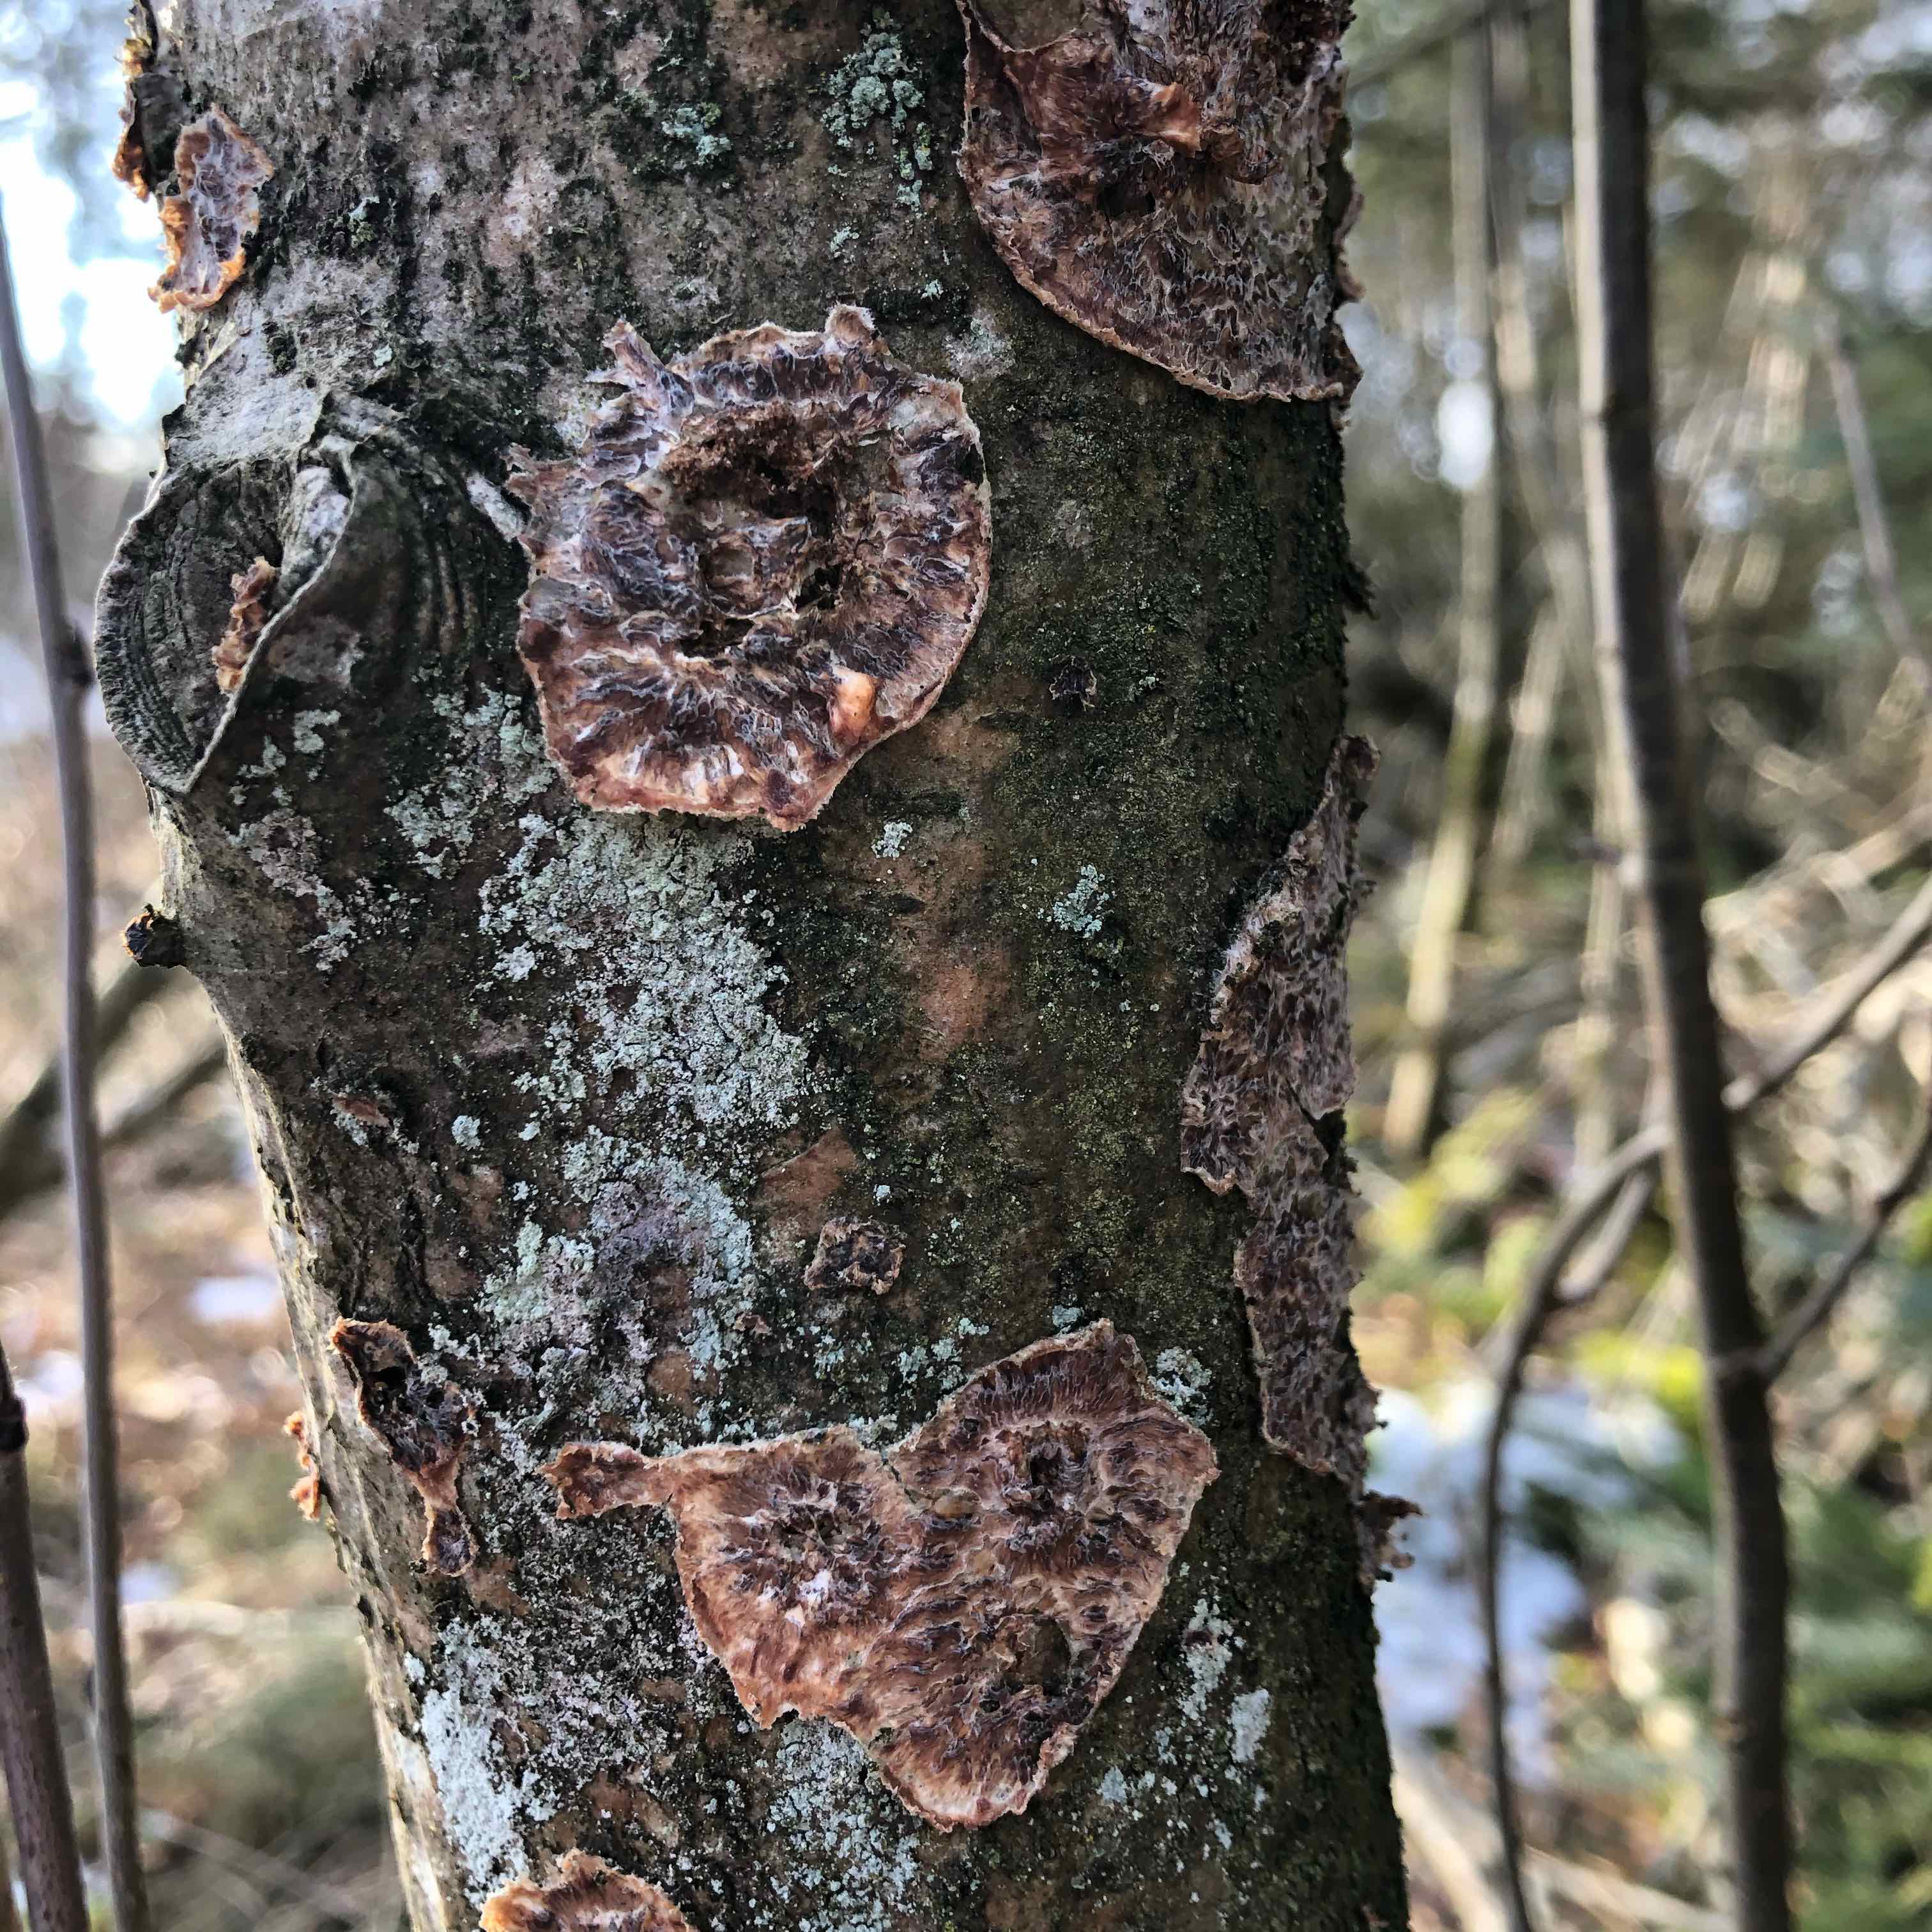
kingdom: Fungi
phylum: Basidiomycota
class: Agaricomycetes
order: Polyporales
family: Meruliaceae
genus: Phlebia
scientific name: Phlebia radiata
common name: stråle-åresvamp
